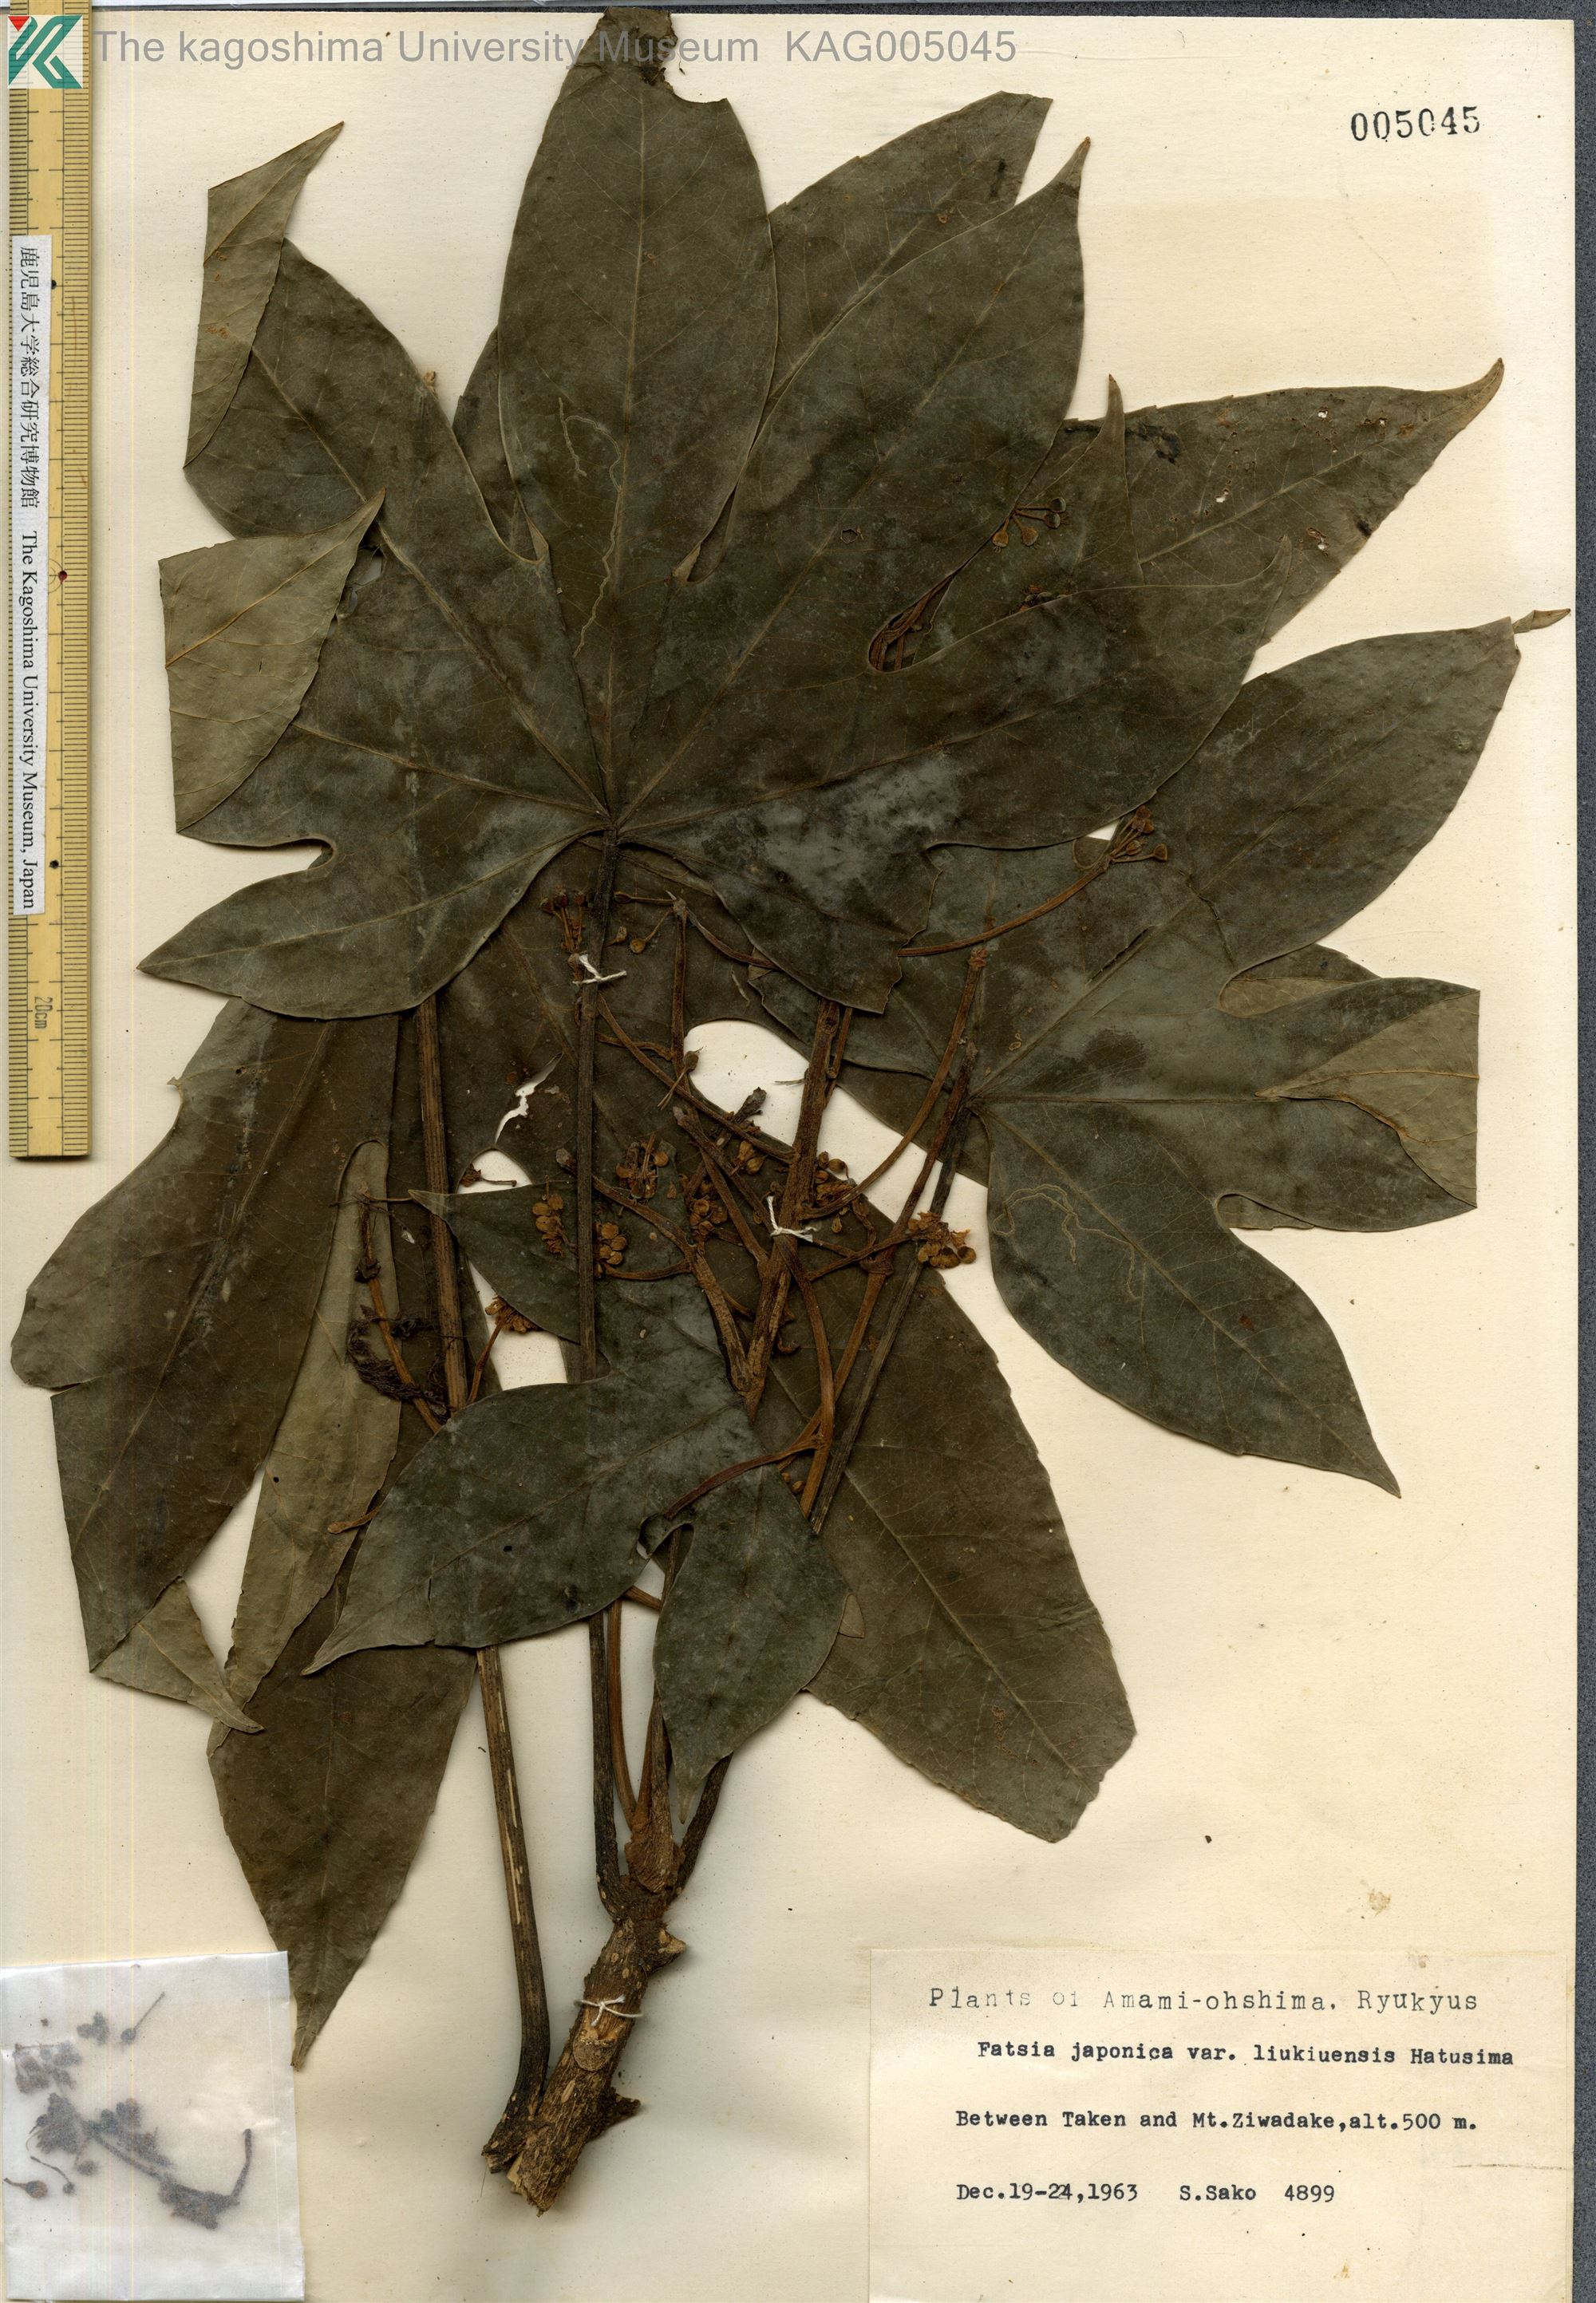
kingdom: Plantae
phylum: Tracheophyta
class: Magnoliopsida
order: Apiales
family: Araliaceae
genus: Fatsia
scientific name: Fatsia japonica
